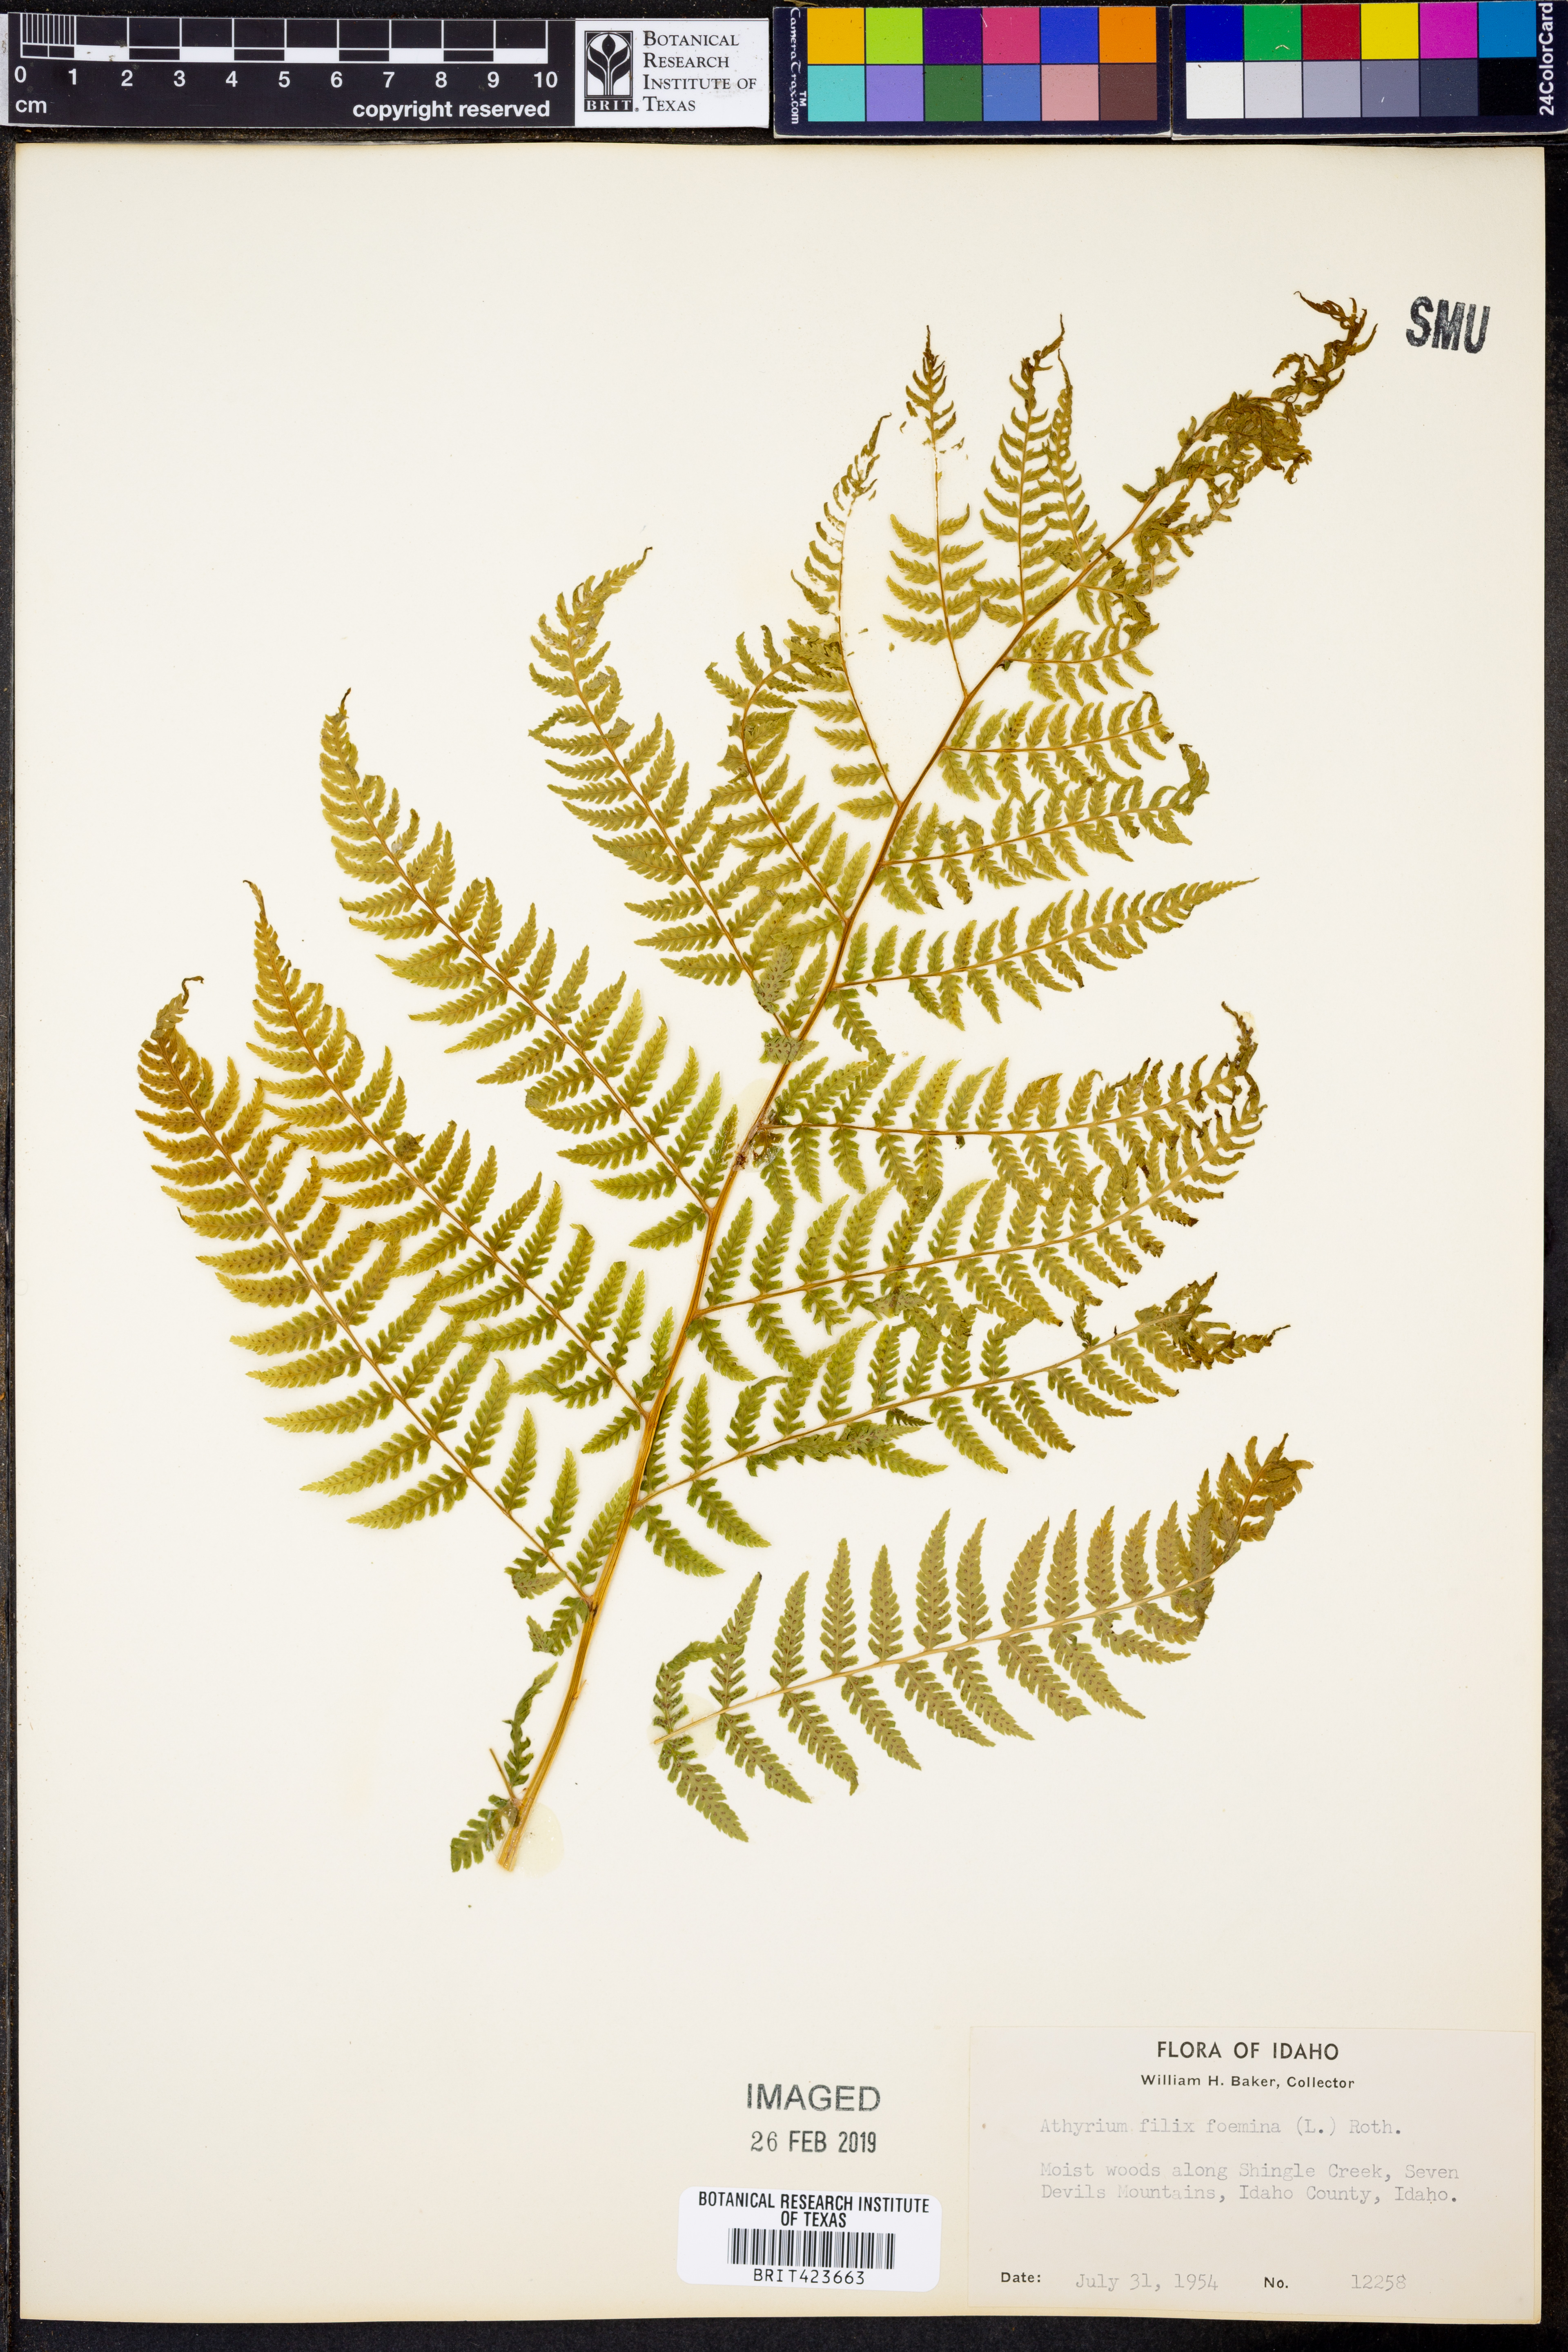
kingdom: Plantae
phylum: Tracheophyta
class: Polypodiopsida
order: Polypodiales
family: Athyriaceae
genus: Athyrium
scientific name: Athyrium filix-femina
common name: Lady fern
